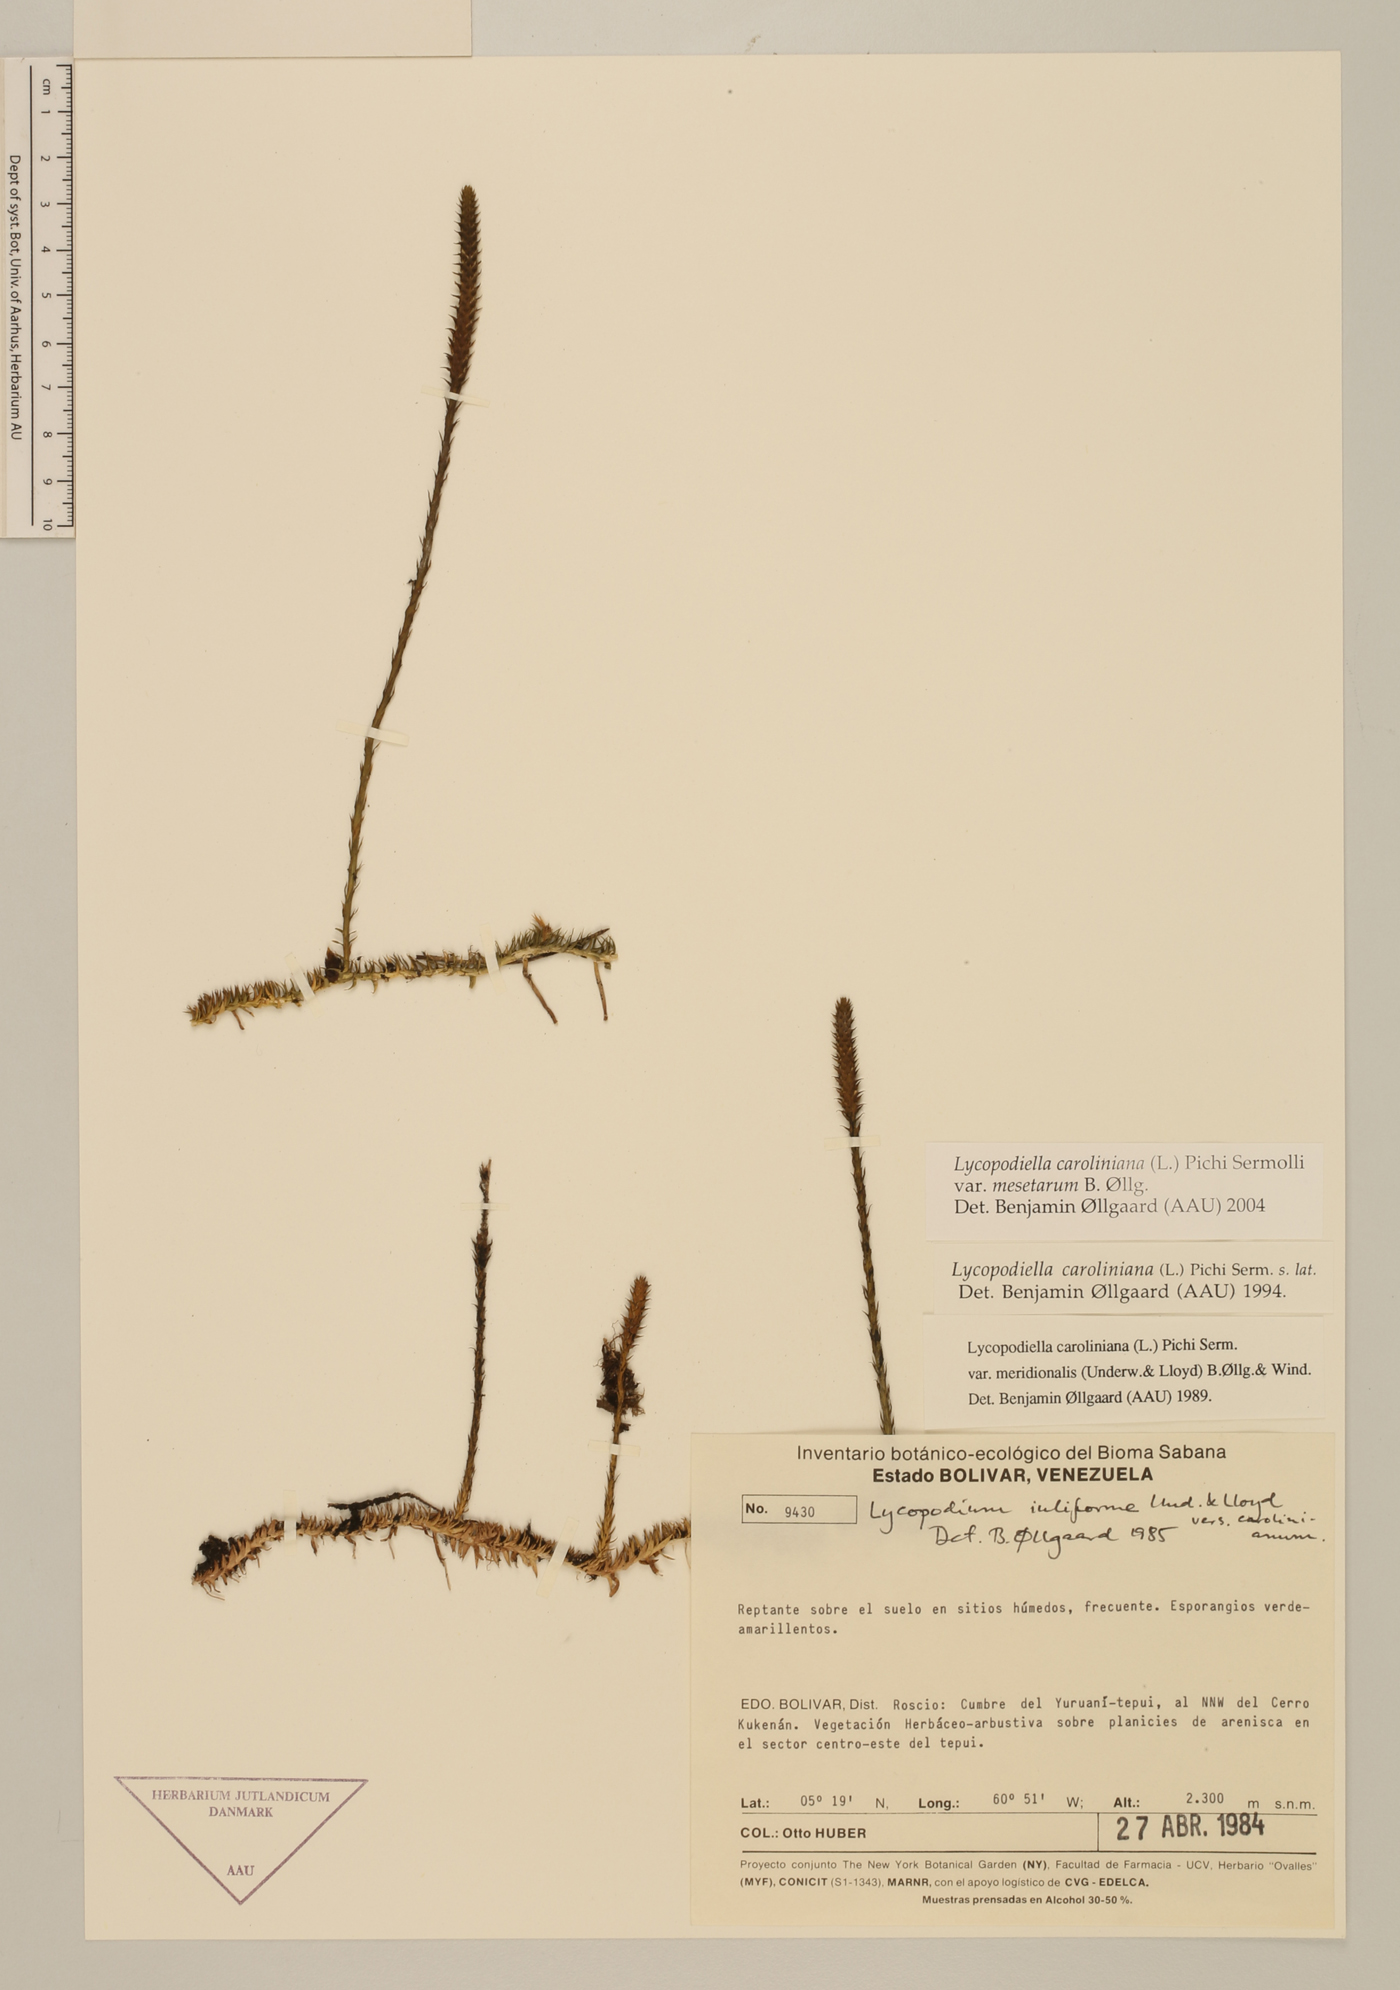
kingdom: Plantae
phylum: Tracheophyta
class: Lycopodiopsida
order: Lycopodiales
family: Lycopodiaceae
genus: Pseudolycopodiella
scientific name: Pseudolycopodiella meridionalis
